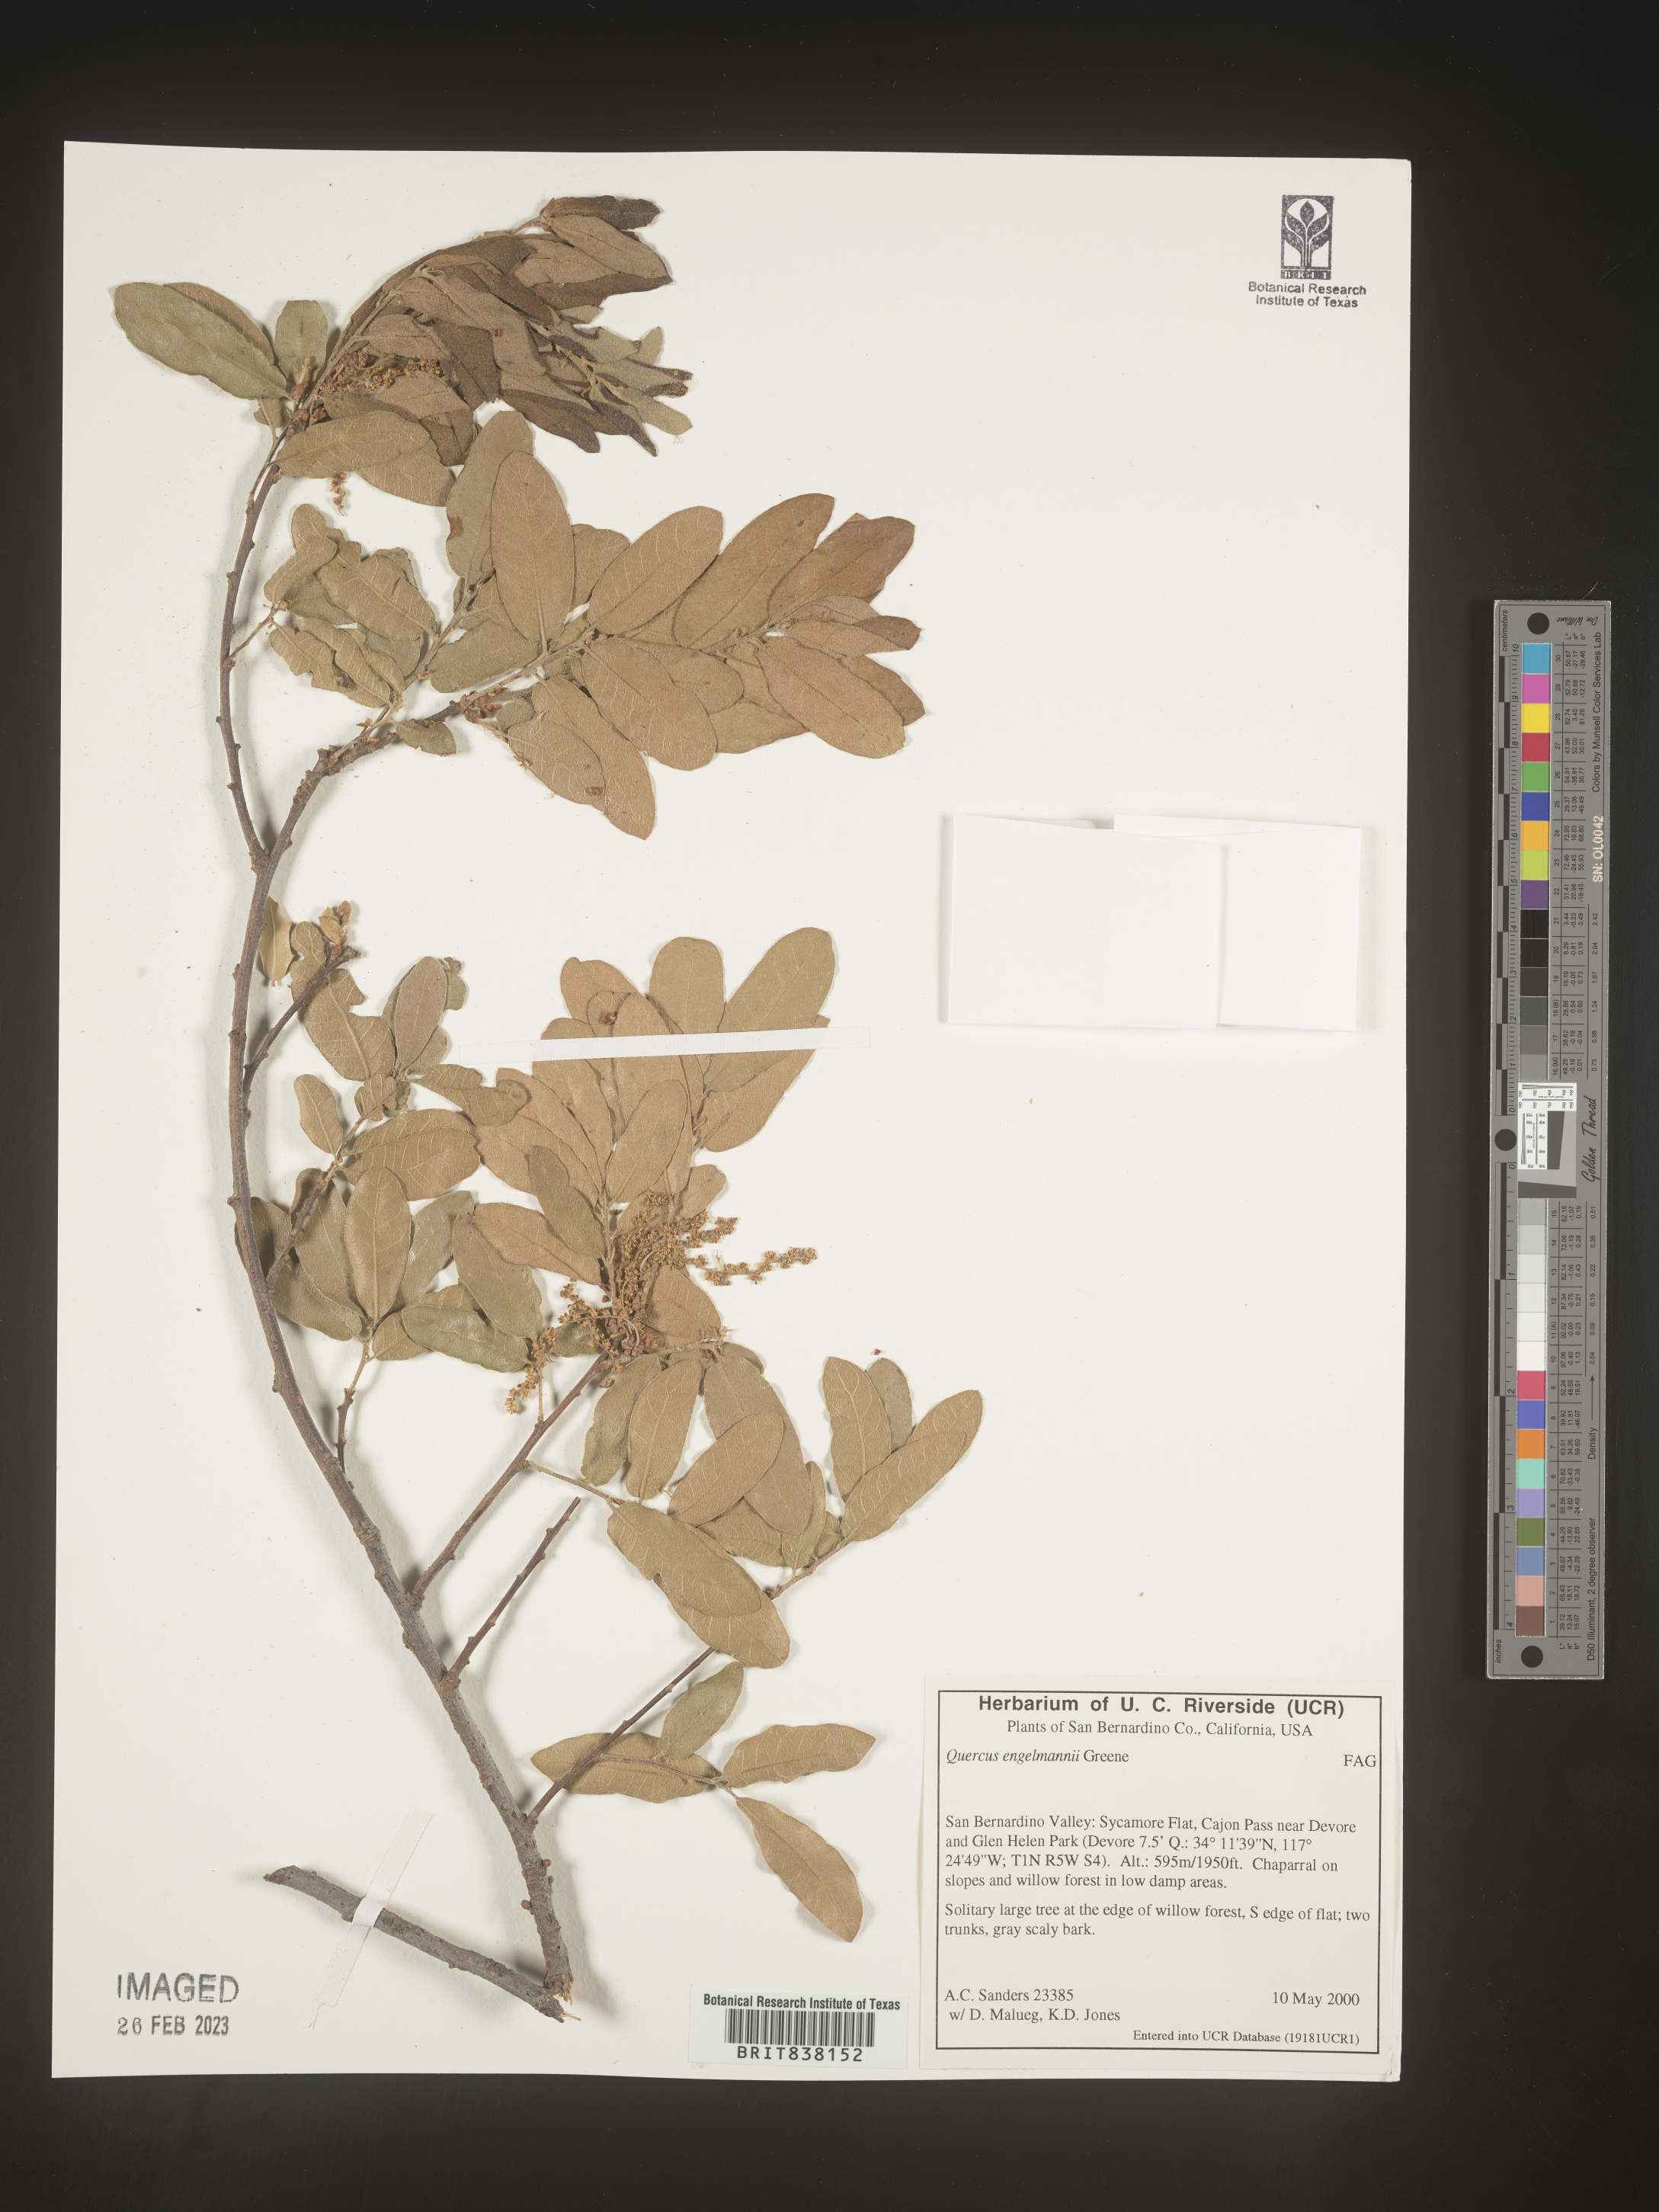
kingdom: Plantae
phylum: Tracheophyta
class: Magnoliopsida
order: Fagales
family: Fagaceae
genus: Quercus
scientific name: Quercus
